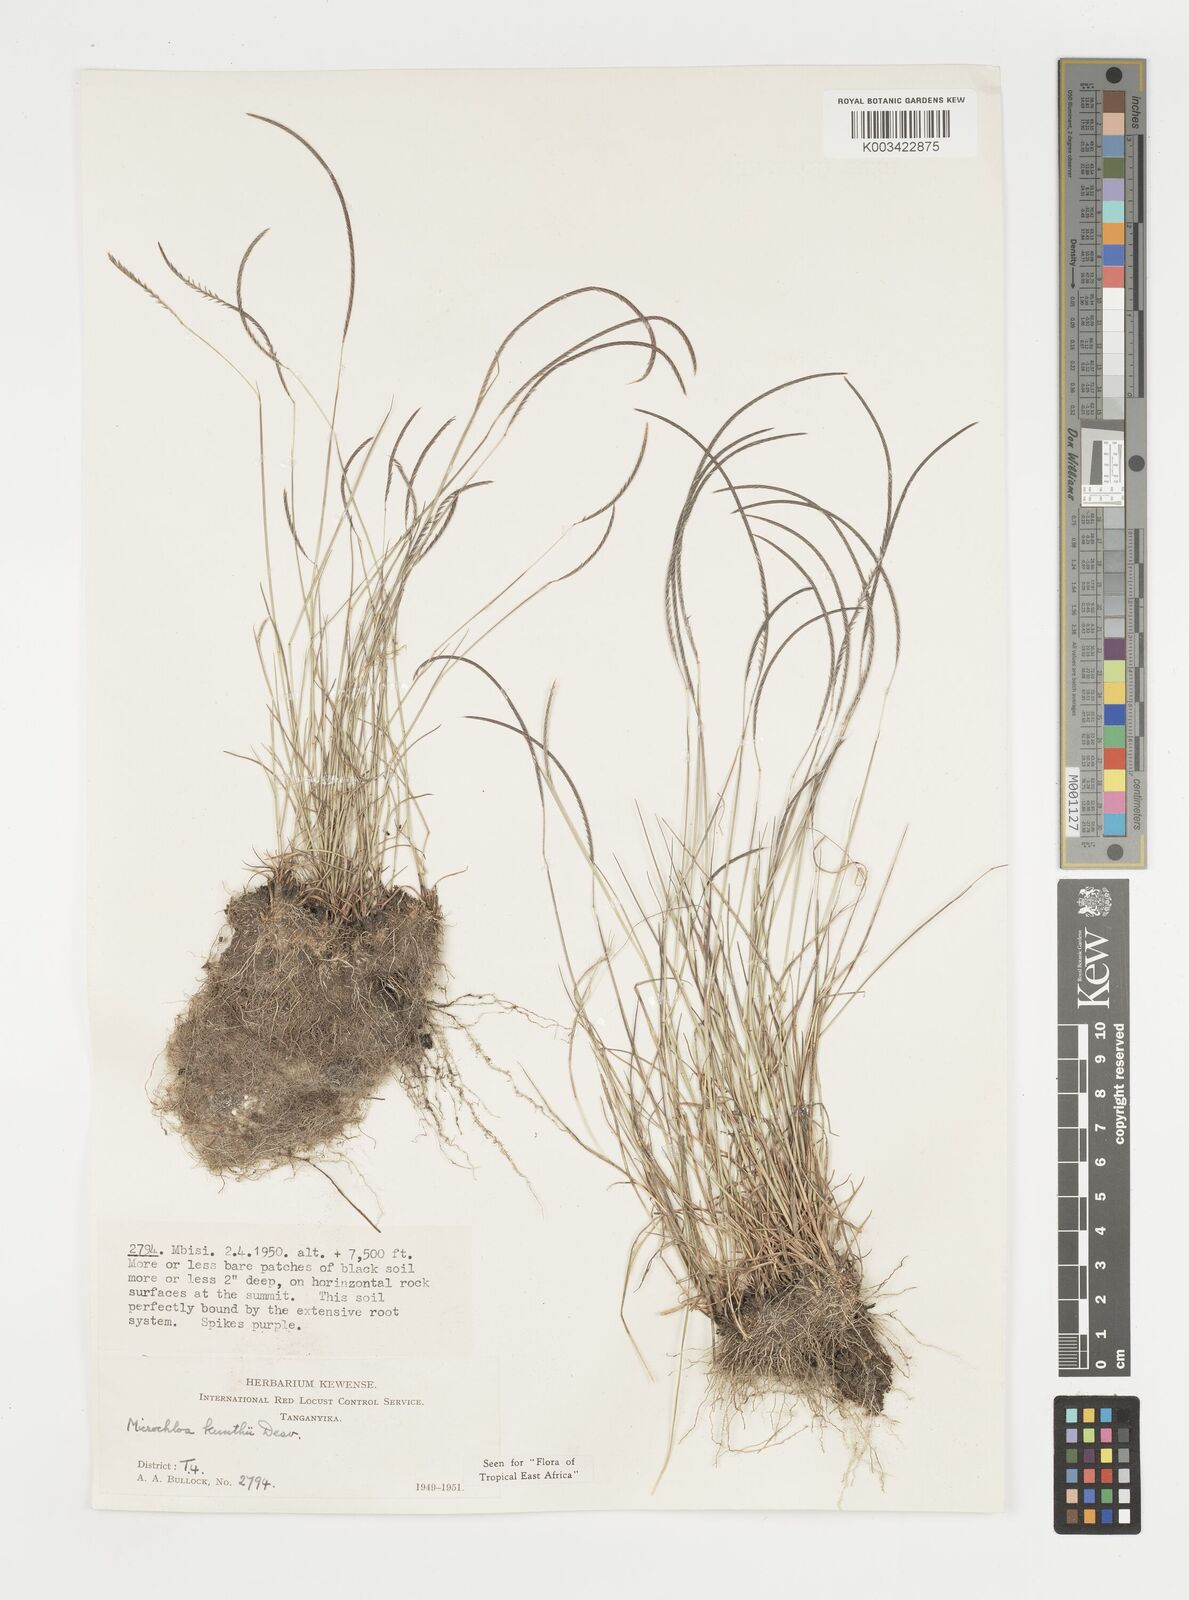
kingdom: Plantae
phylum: Tracheophyta
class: Liliopsida
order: Poales
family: Poaceae
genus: Microchloa
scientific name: Microchloa kunthii
